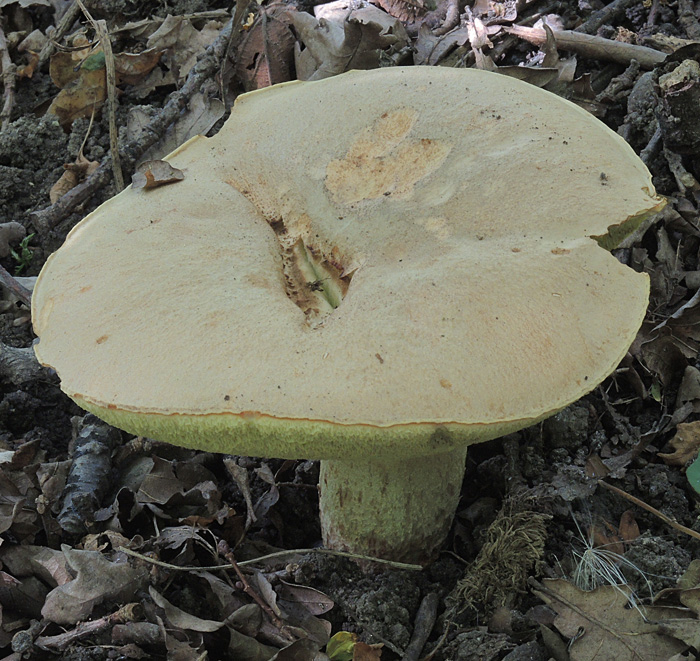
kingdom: Fungi
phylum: Basidiomycota
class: Agaricomycetes
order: Boletales
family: Boletaceae
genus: Hemileccinum
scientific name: Hemileccinum impolitum
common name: bleg rørhat
